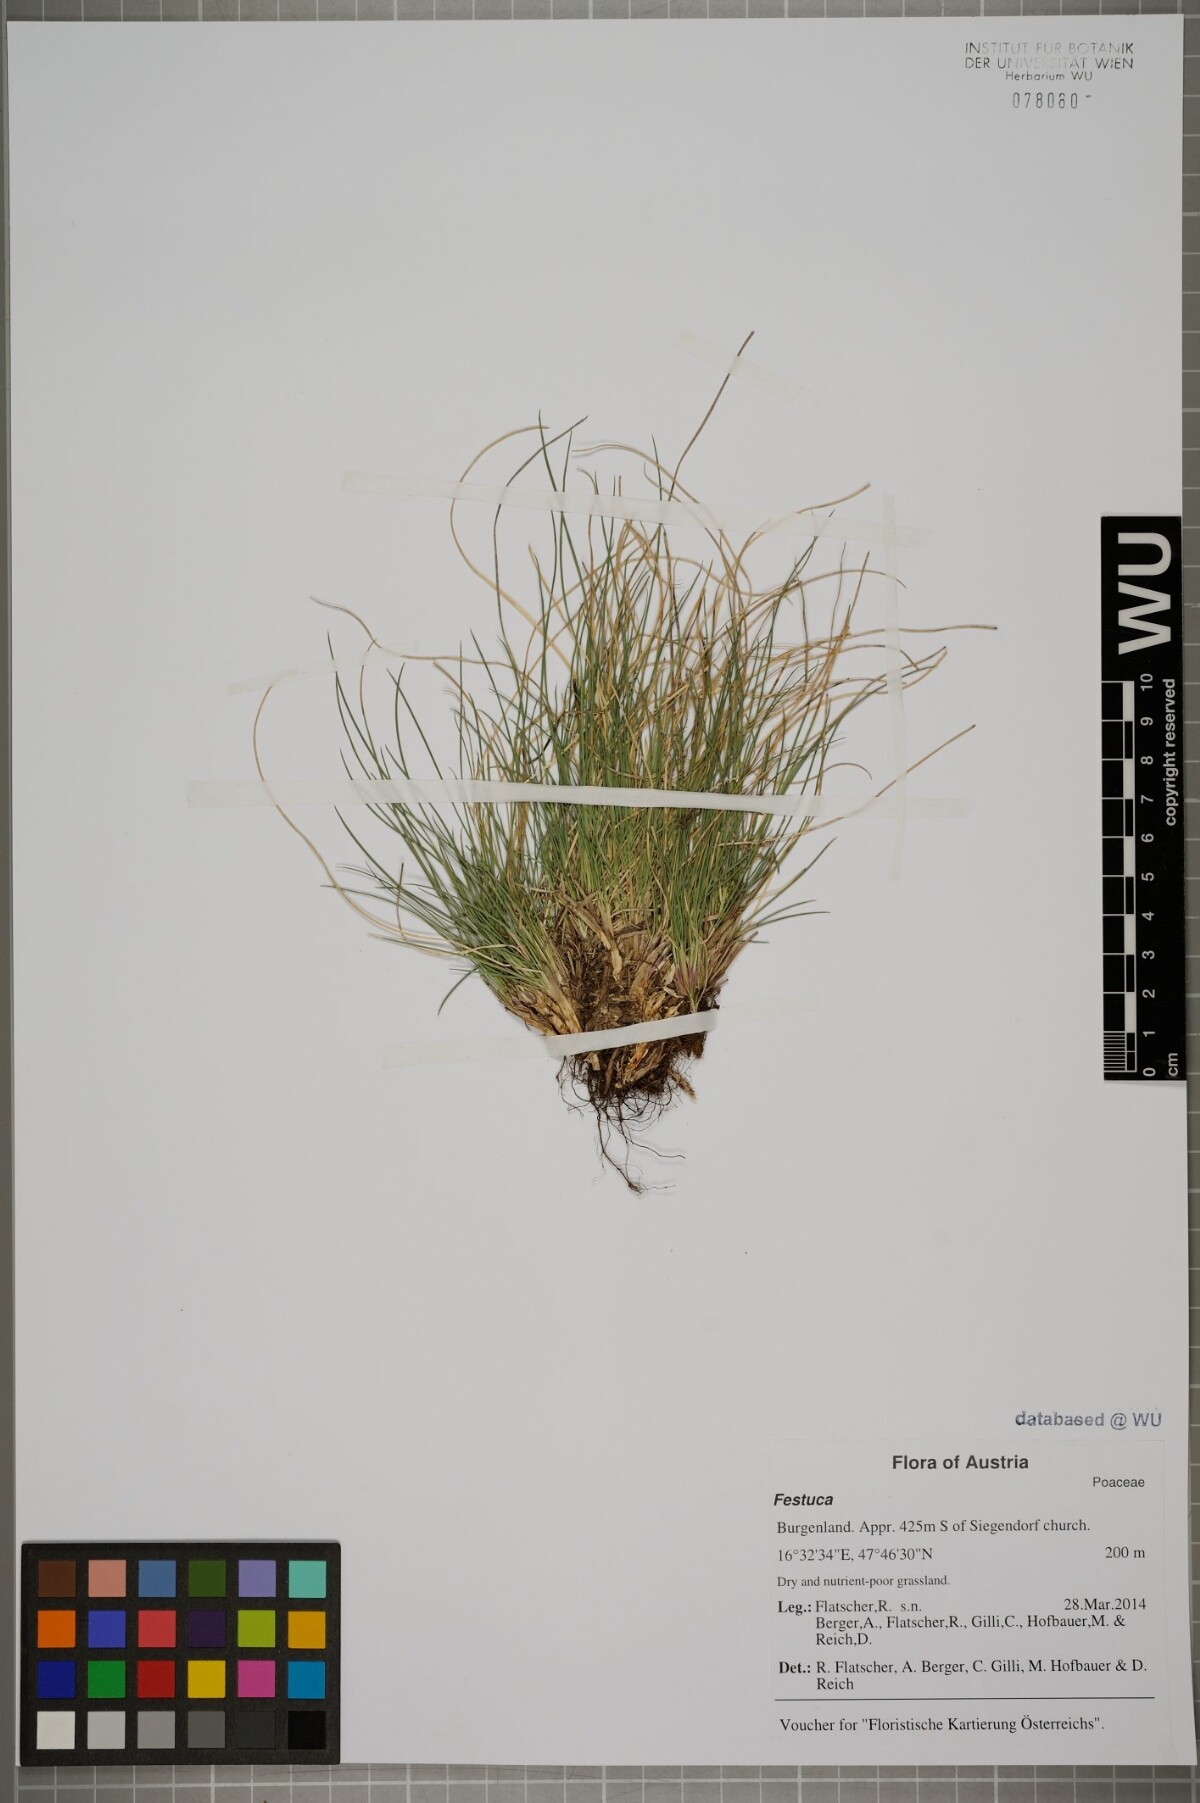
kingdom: Plantae
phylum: Tracheophyta
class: Liliopsida
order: Poales
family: Poaceae
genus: Festuca
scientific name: Festuca
